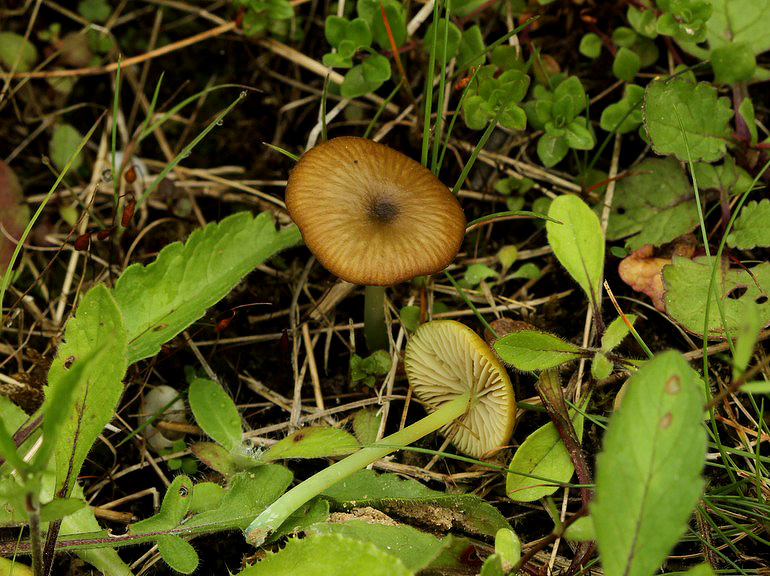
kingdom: Fungi
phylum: Basidiomycota
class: Agaricomycetes
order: Agaricales
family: Entolomataceae
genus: Entoloma
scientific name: Entoloma incanum
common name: grøngul rødblad
